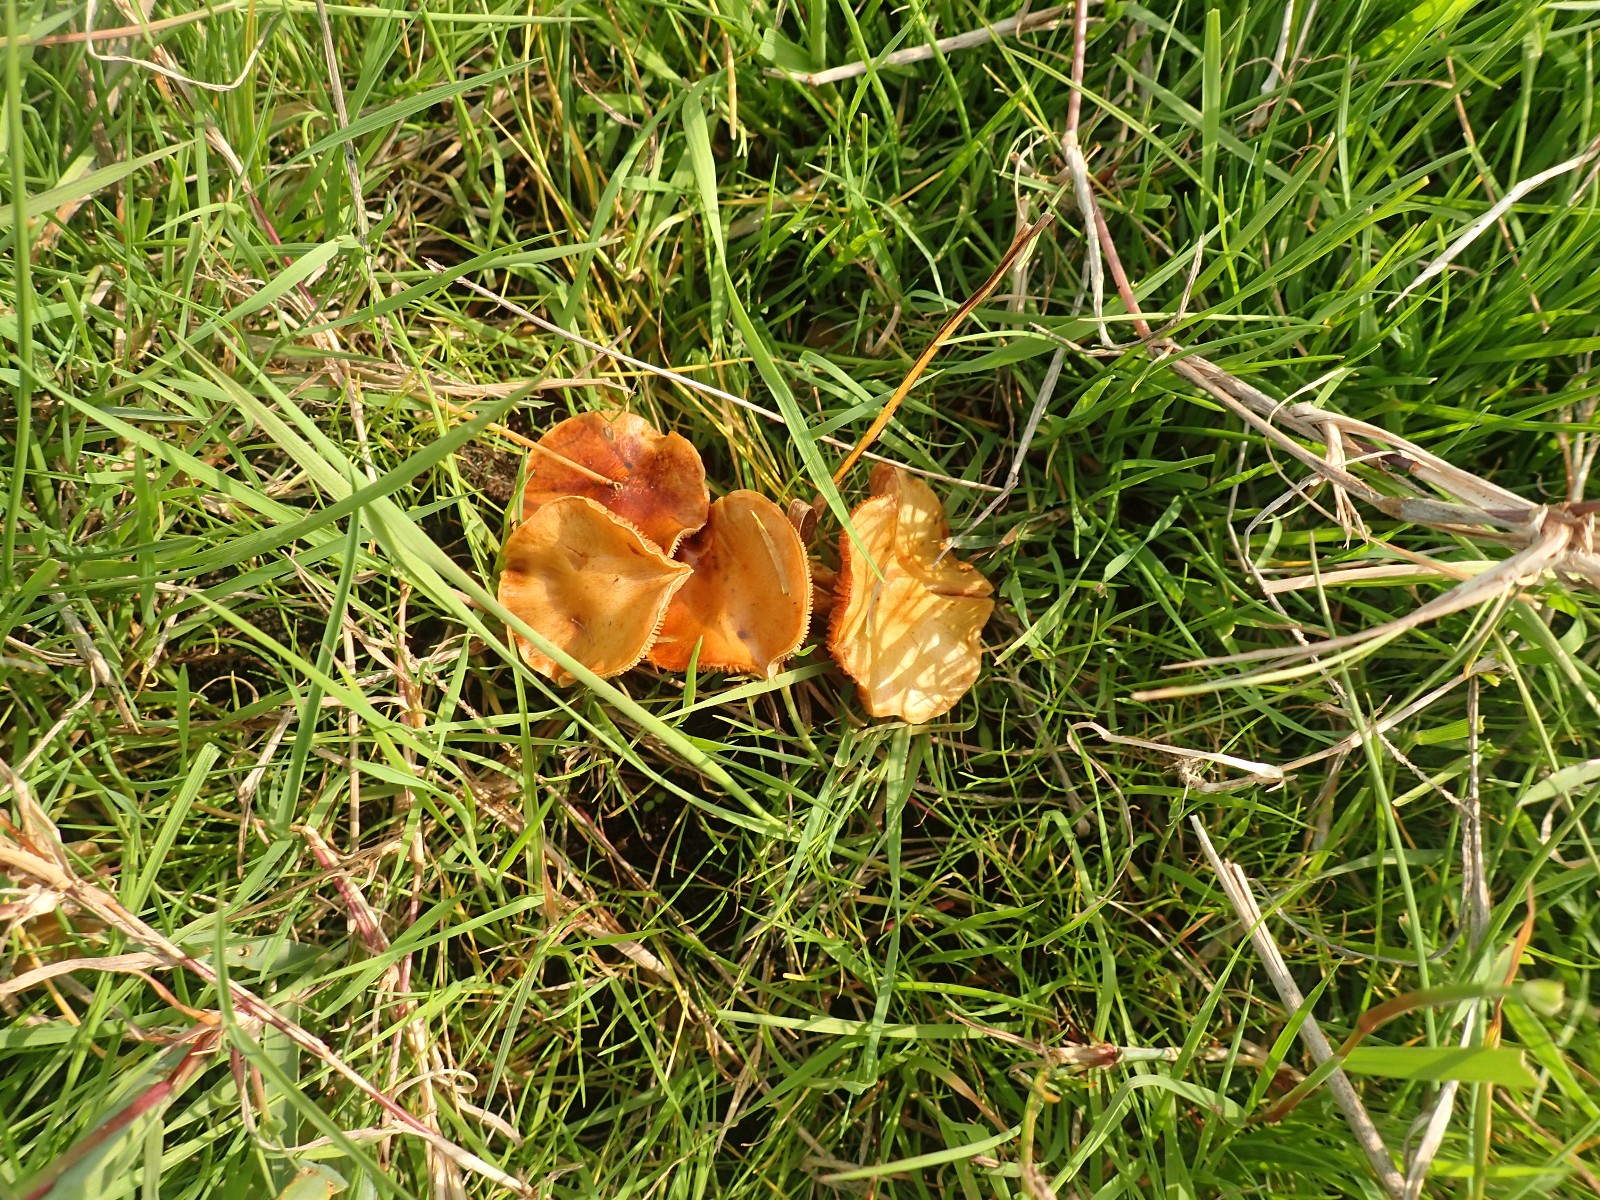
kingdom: Fungi
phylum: Basidiomycota
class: Agaricomycetes
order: Agaricales
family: Strophariaceae
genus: Pholiota
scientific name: Pholiota conissans
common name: pile-skælhat
